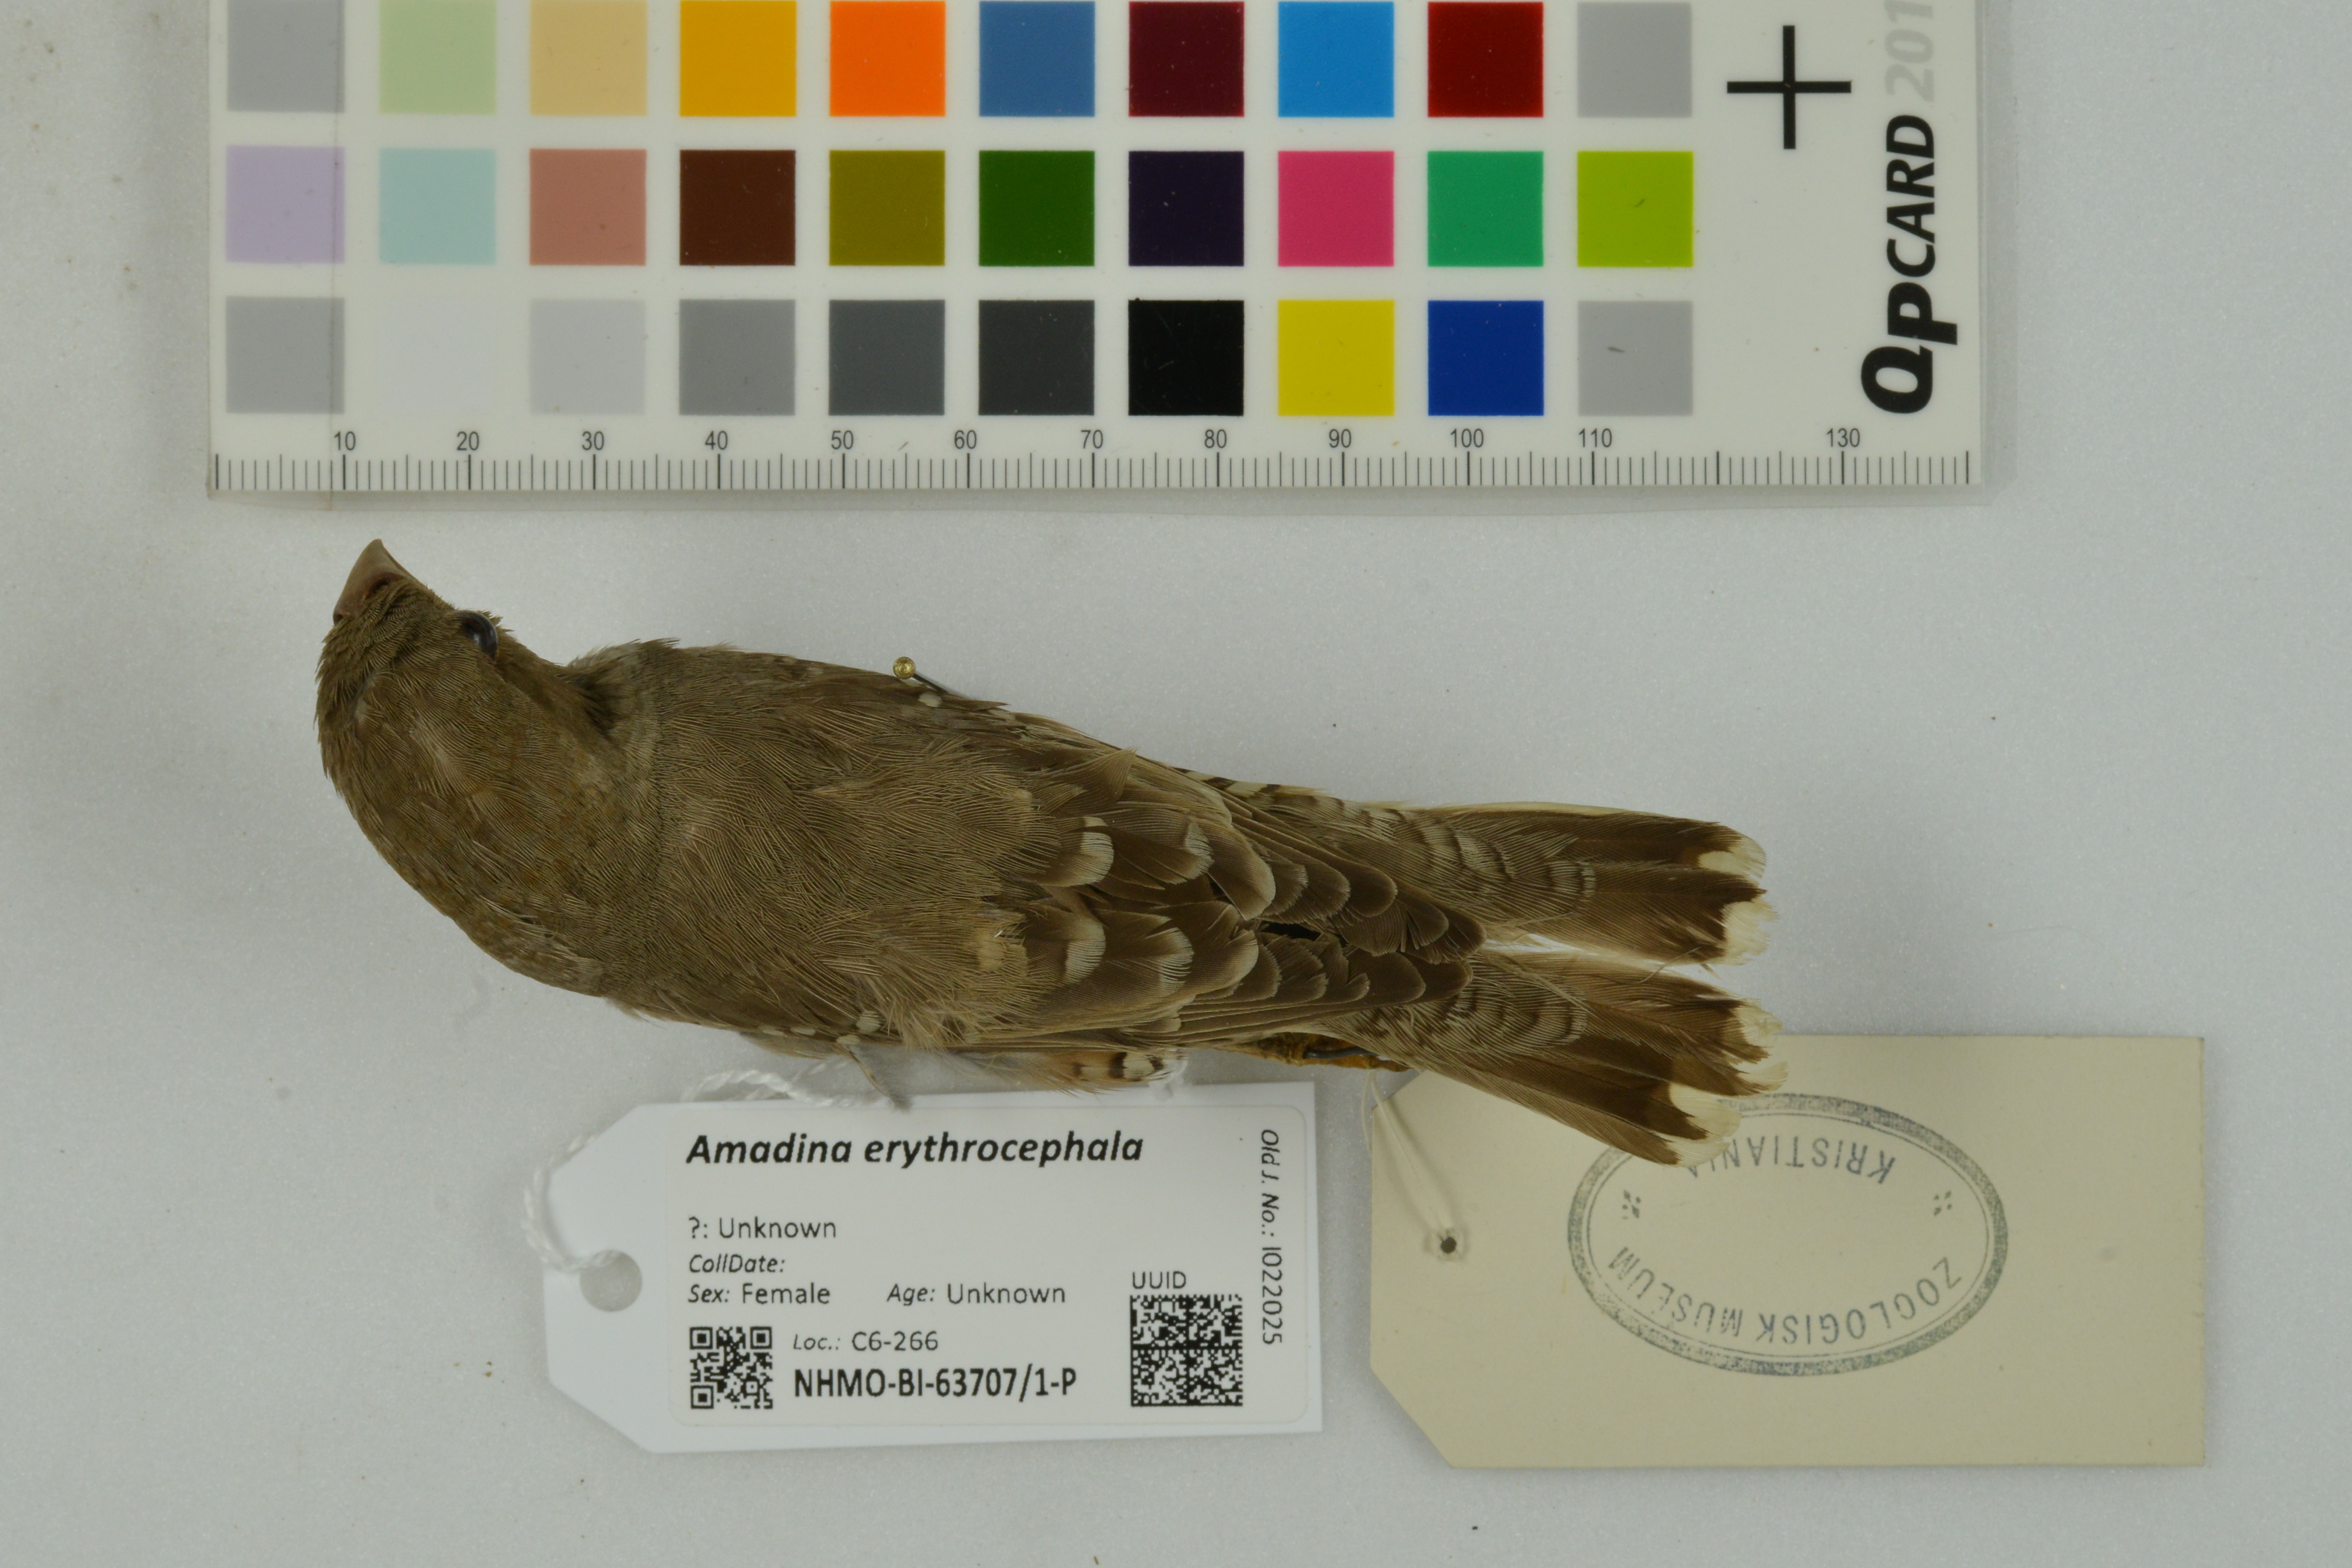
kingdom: Animalia
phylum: Chordata
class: Aves
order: Passeriformes
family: Estrildidae
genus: Amadina
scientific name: Amadina erythrocephala
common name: Red-headed finch
